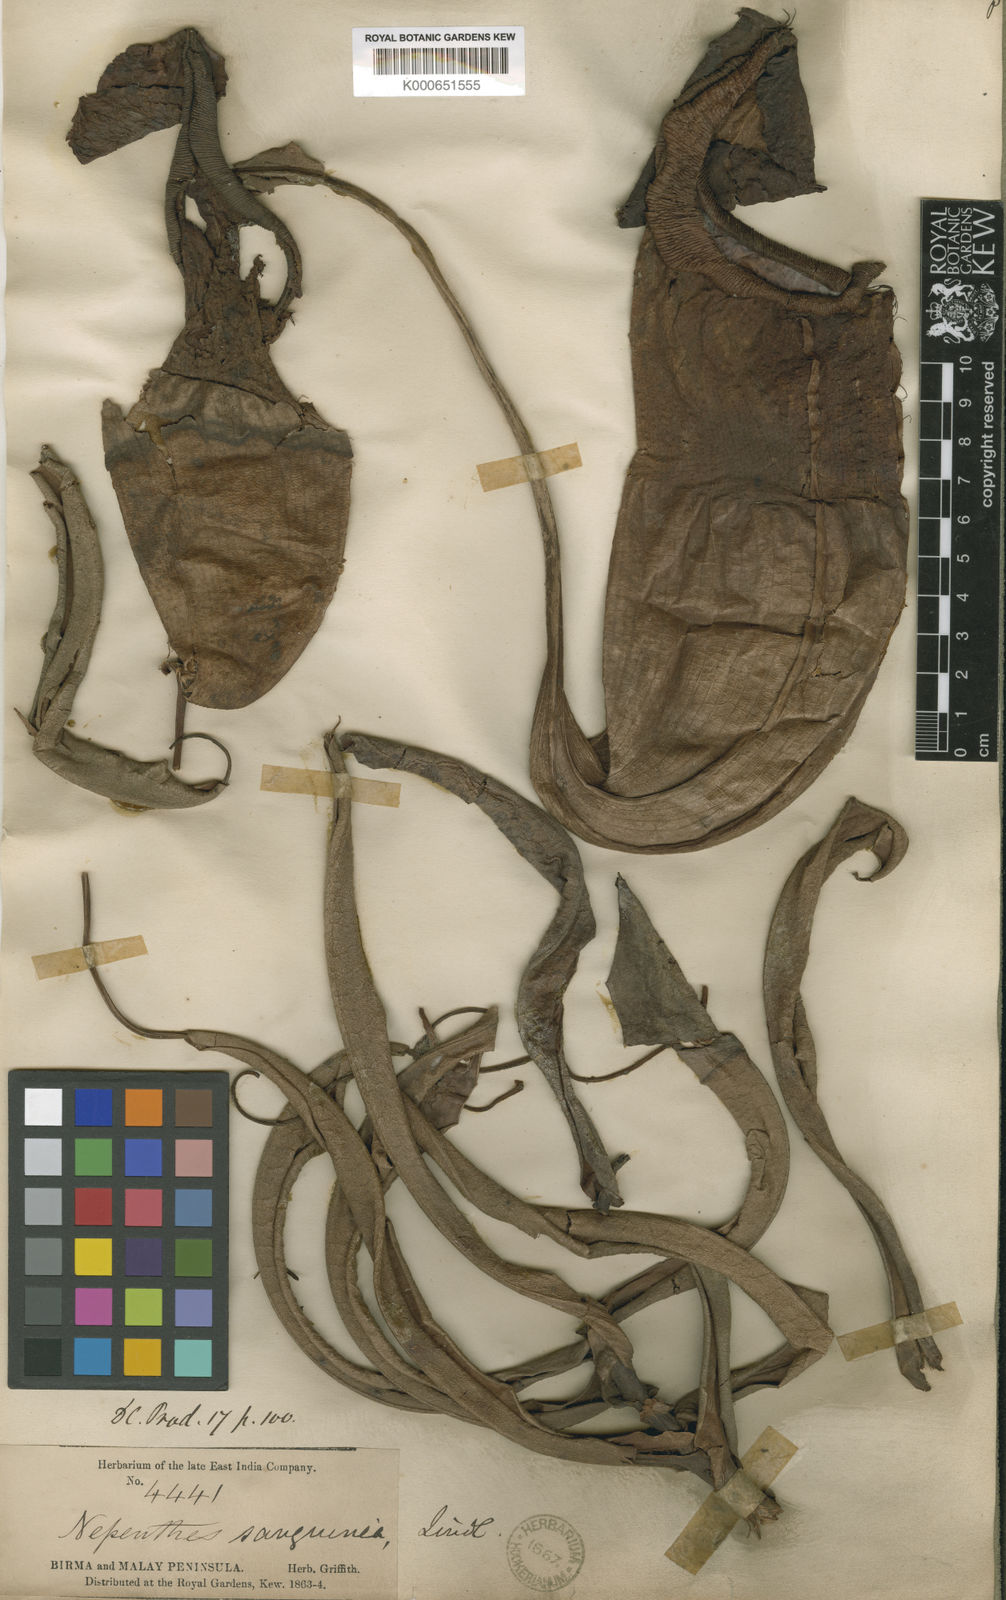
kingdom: Plantae
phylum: Tracheophyta
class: Magnoliopsida
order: Caryophyllales
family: Nepenthaceae
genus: Nepenthes
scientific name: Nepenthes sanguinea
